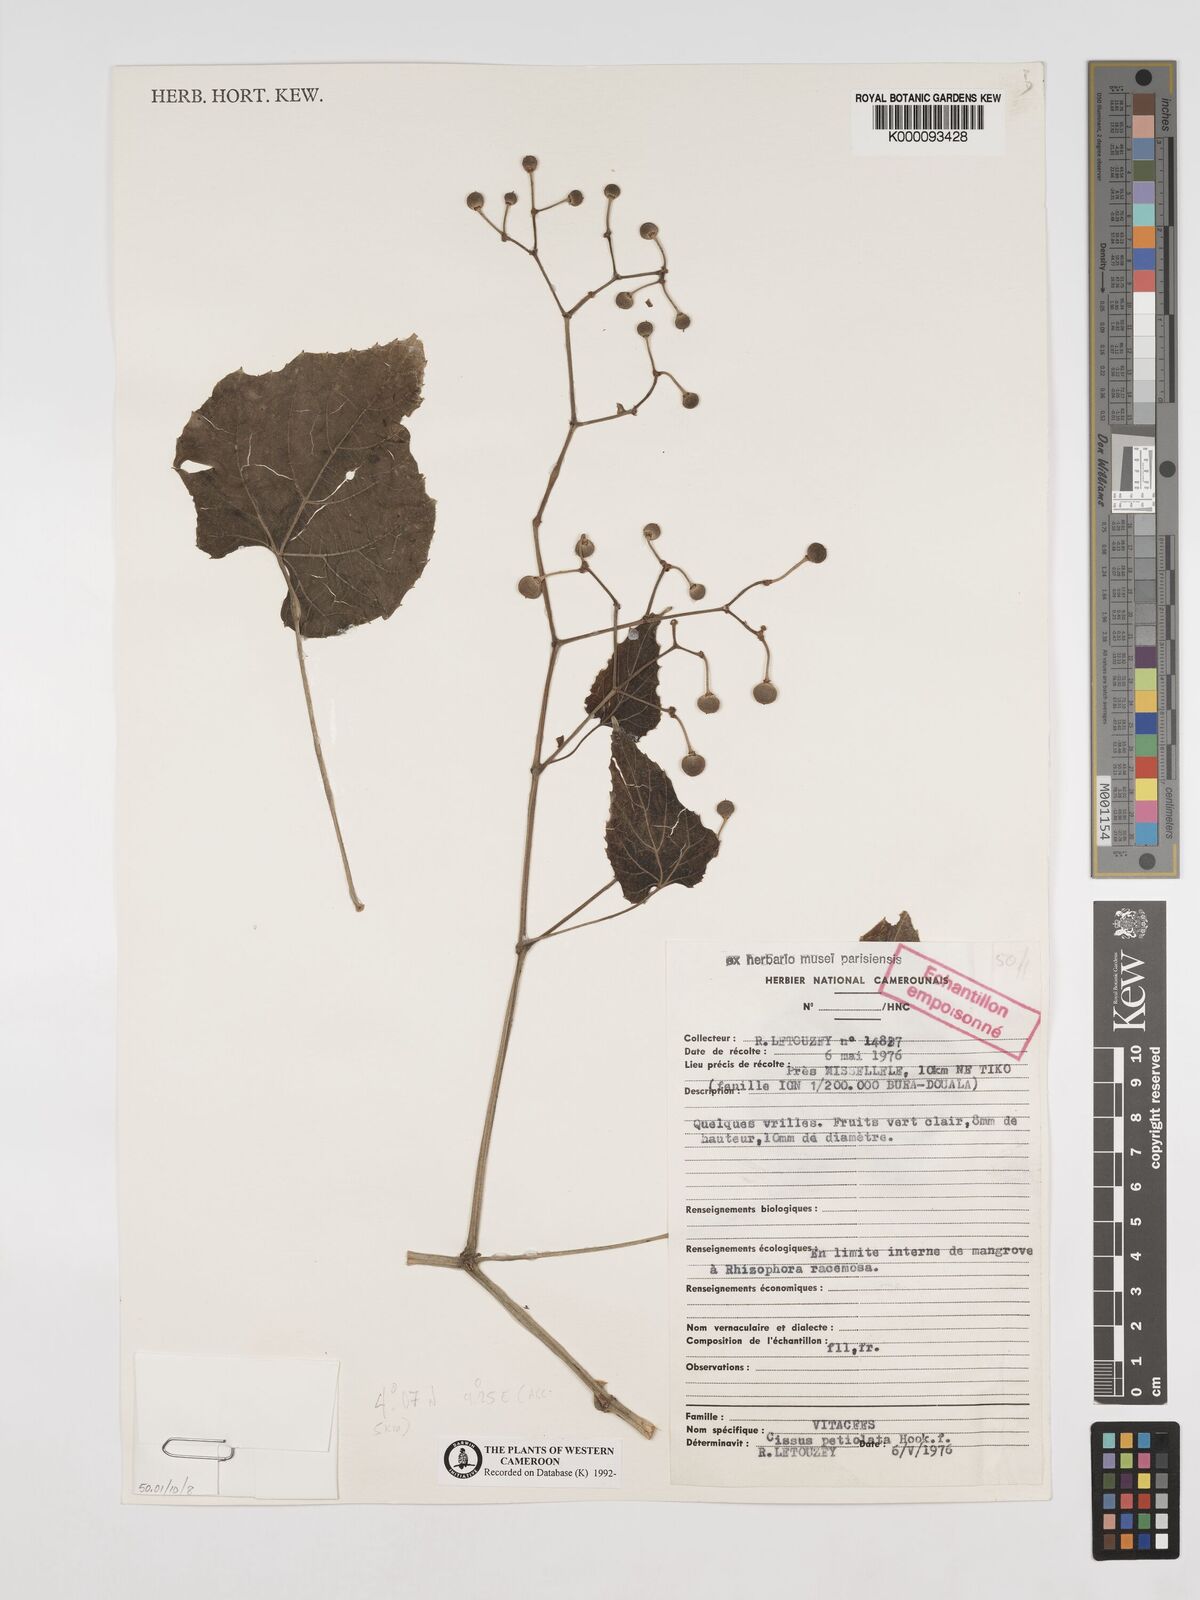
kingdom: Plantae
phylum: Tracheophyta
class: Magnoliopsida
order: Vitales
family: Vitaceae
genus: Cissus
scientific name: Cissus petiolata
